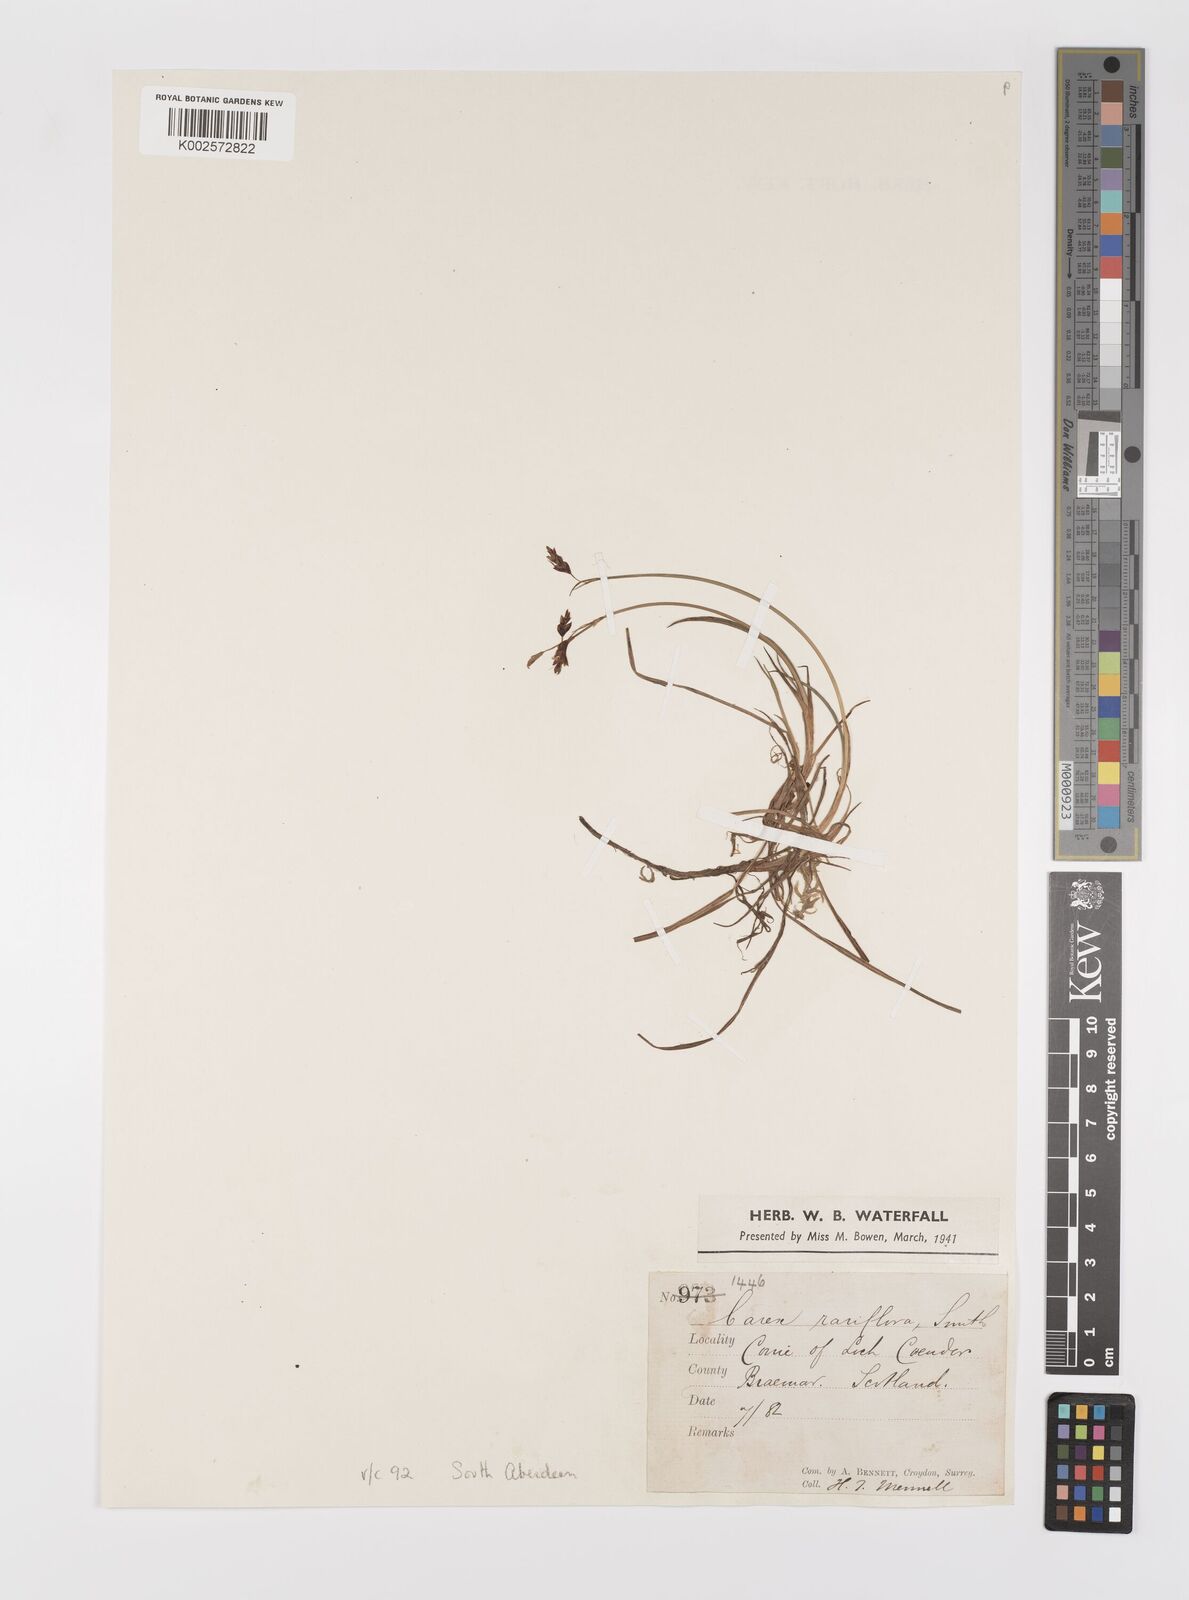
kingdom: Plantae
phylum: Tracheophyta
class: Liliopsida
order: Poales
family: Cyperaceae
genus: Carex
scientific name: Carex rariflora
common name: Loose-flowered alpine sedge
